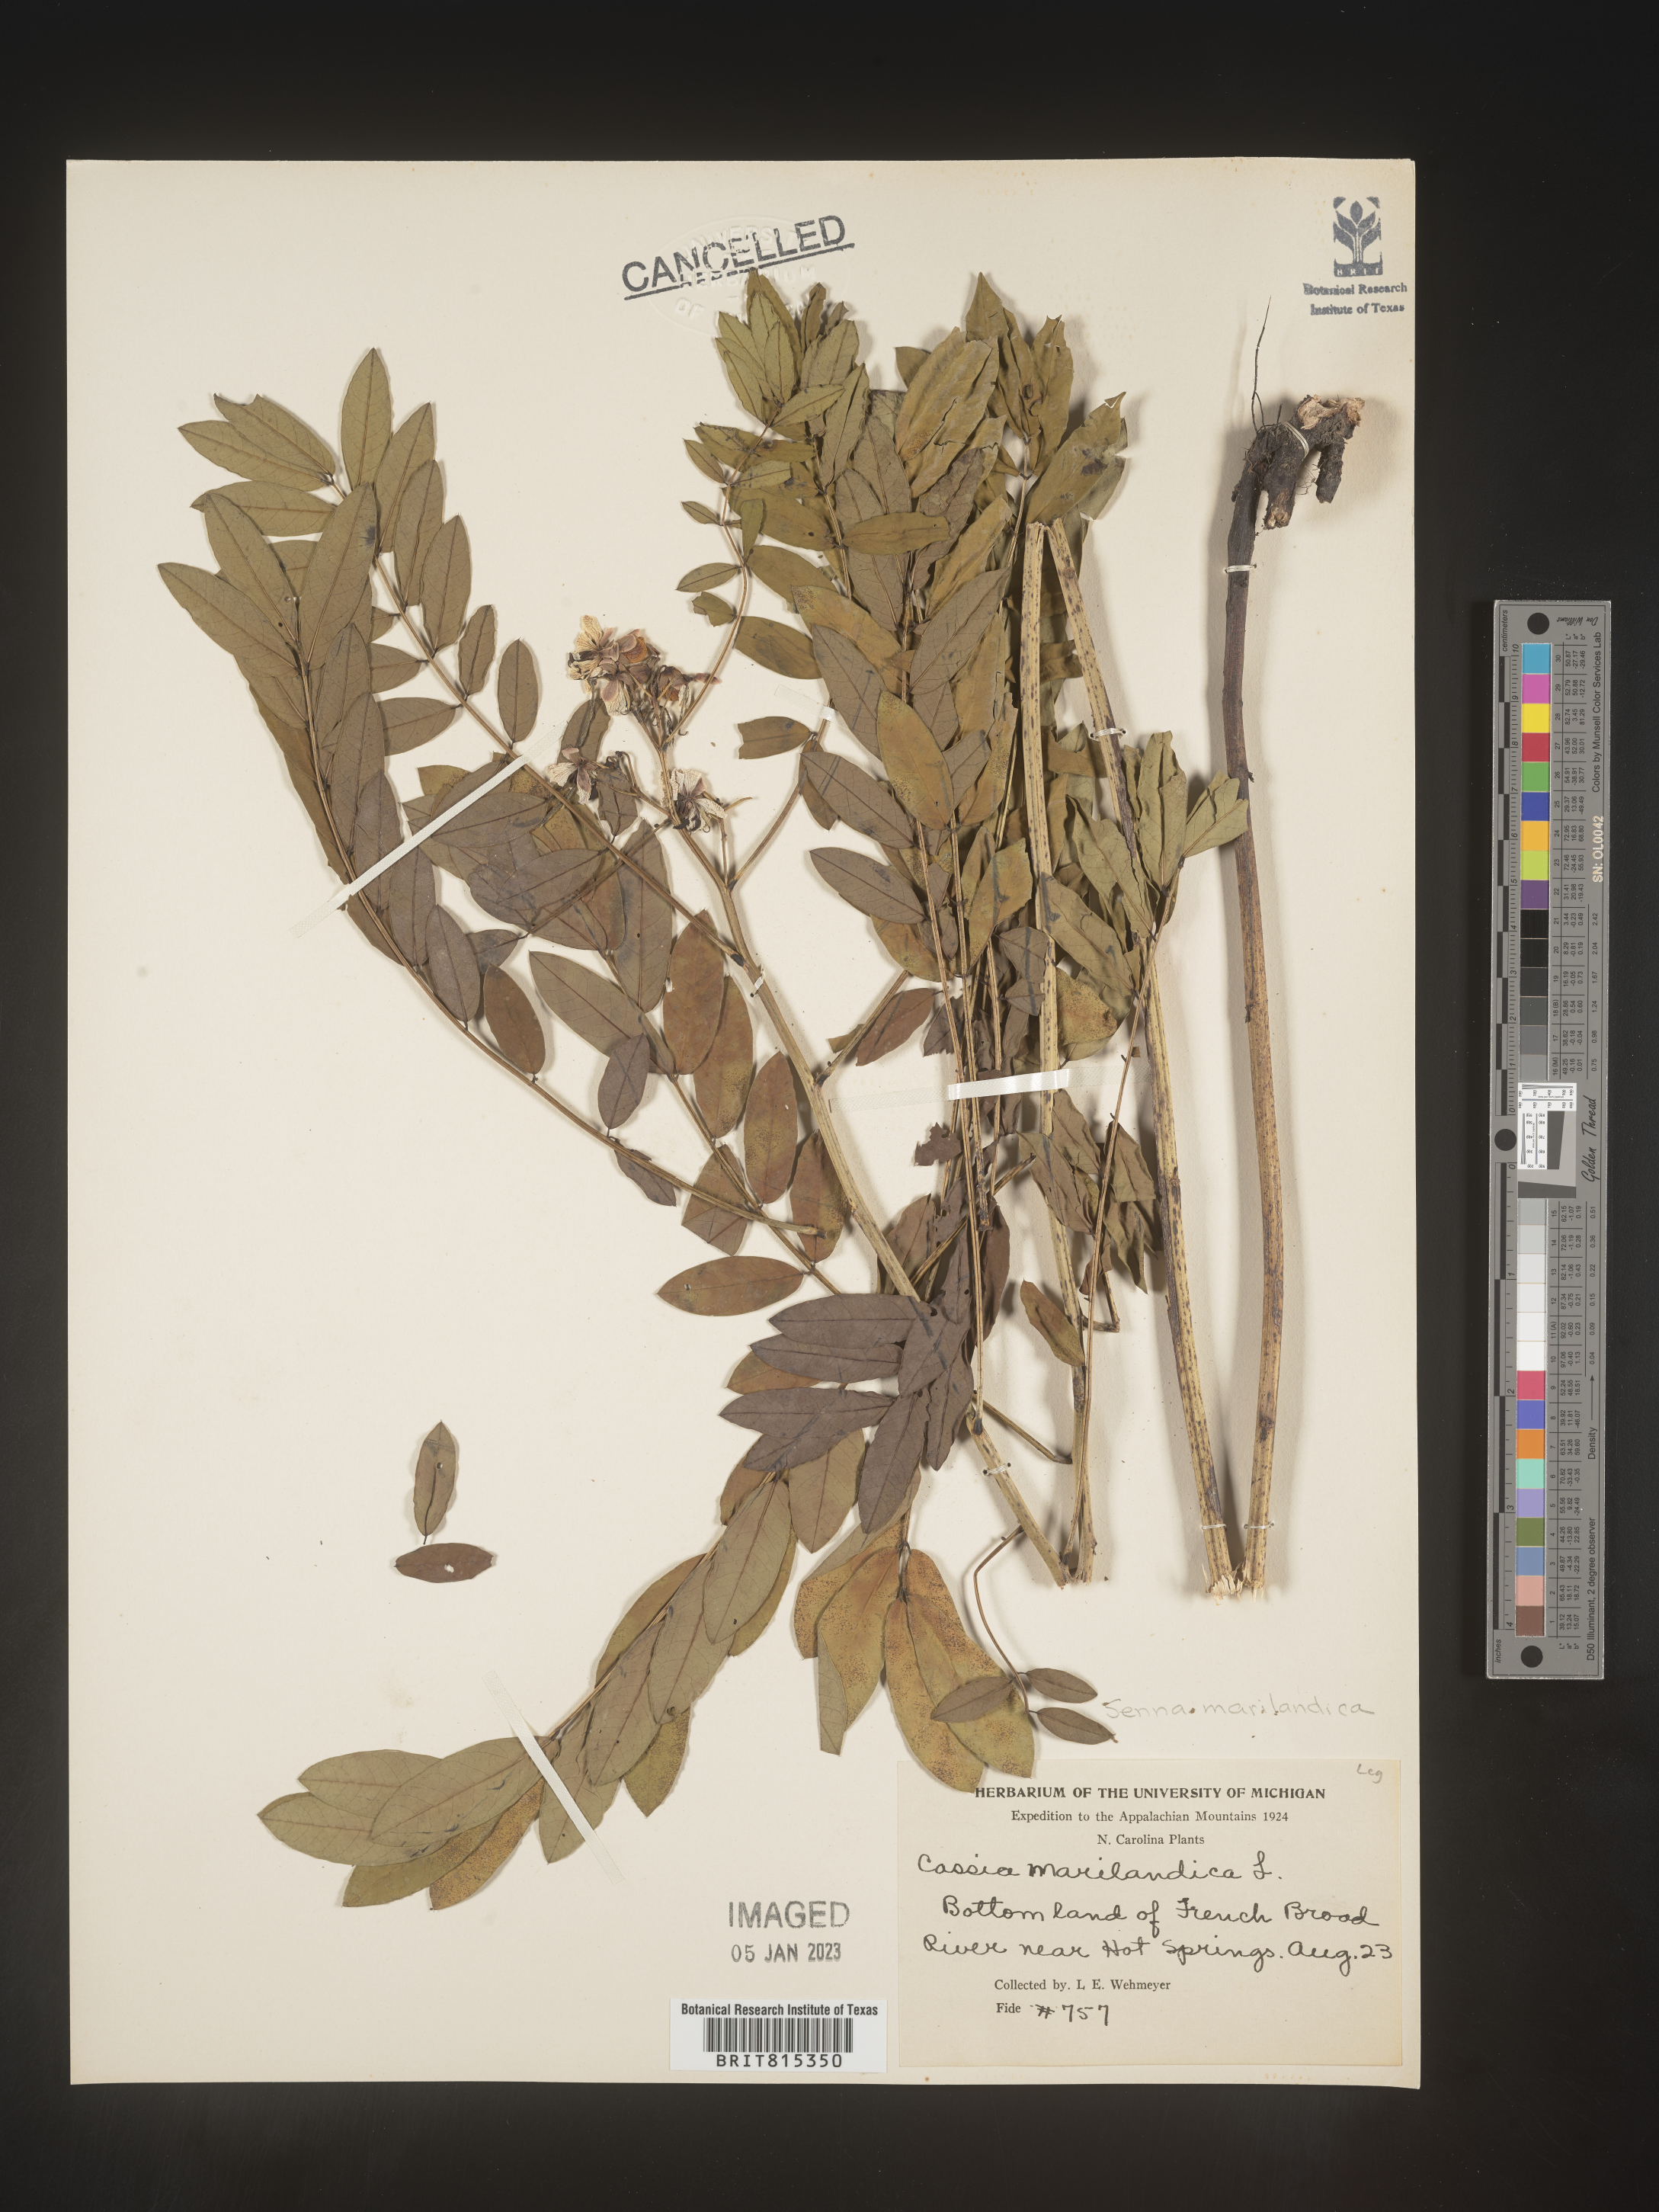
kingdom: Plantae
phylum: Tracheophyta
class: Magnoliopsida
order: Fabales
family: Fabaceae
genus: Senna
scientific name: Senna marilandica
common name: American senna
